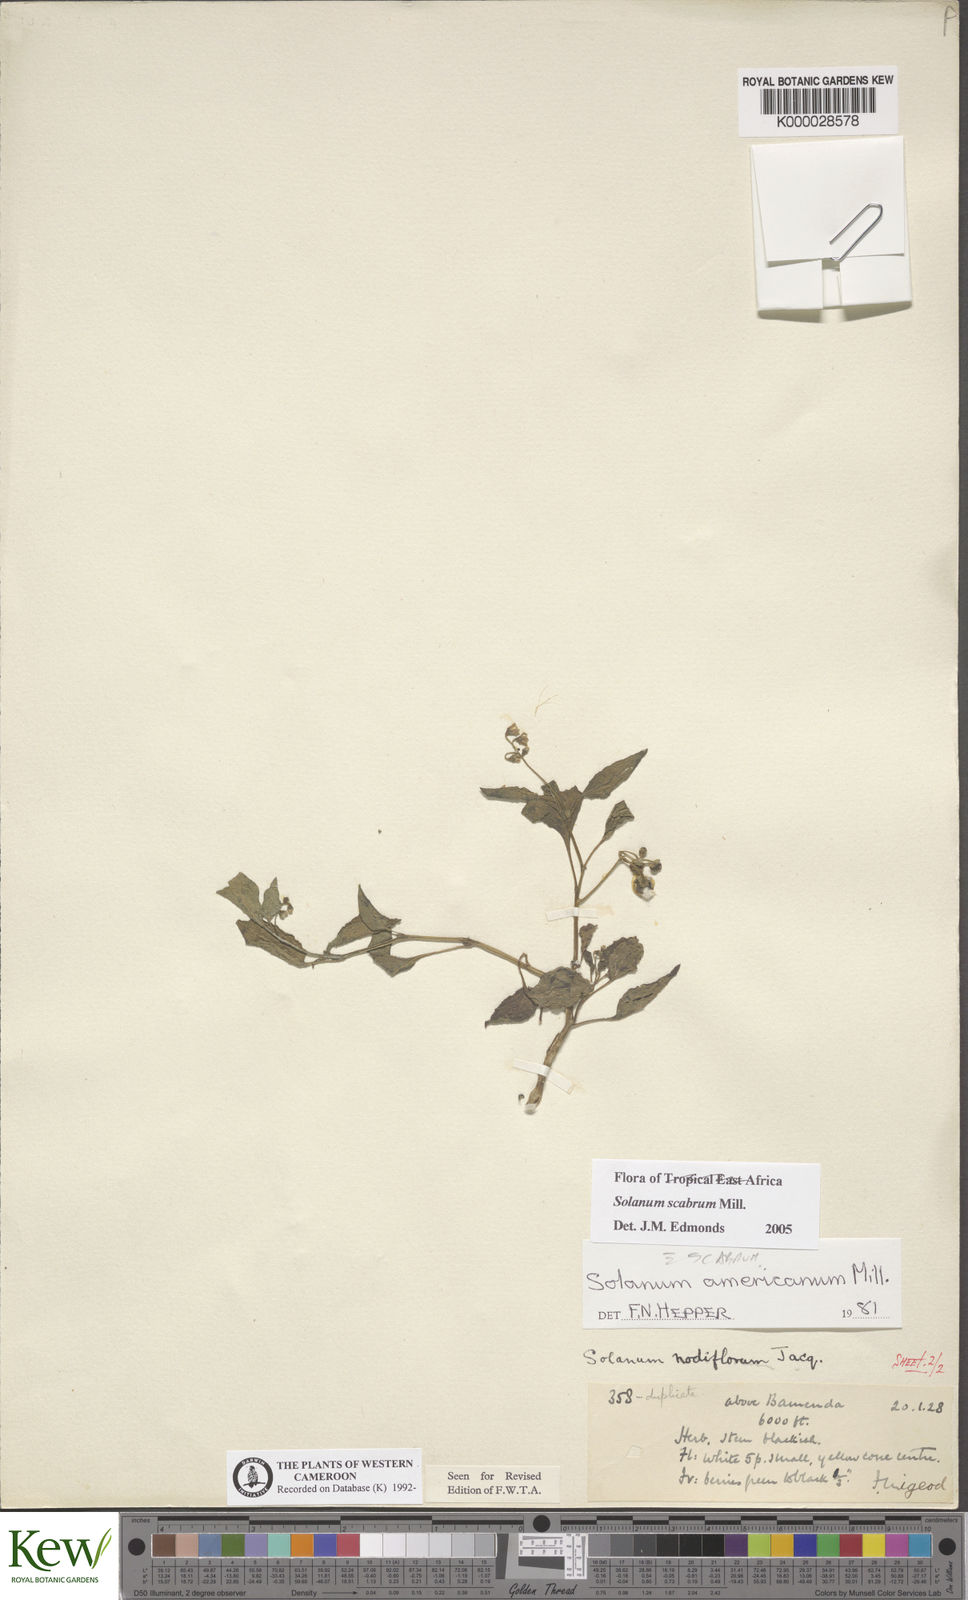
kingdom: Plantae
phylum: Tracheophyta
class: Magnoliopsida
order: Solanales
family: Solanaceae
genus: Solanum
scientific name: Solanum americanum
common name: American black nightshade
